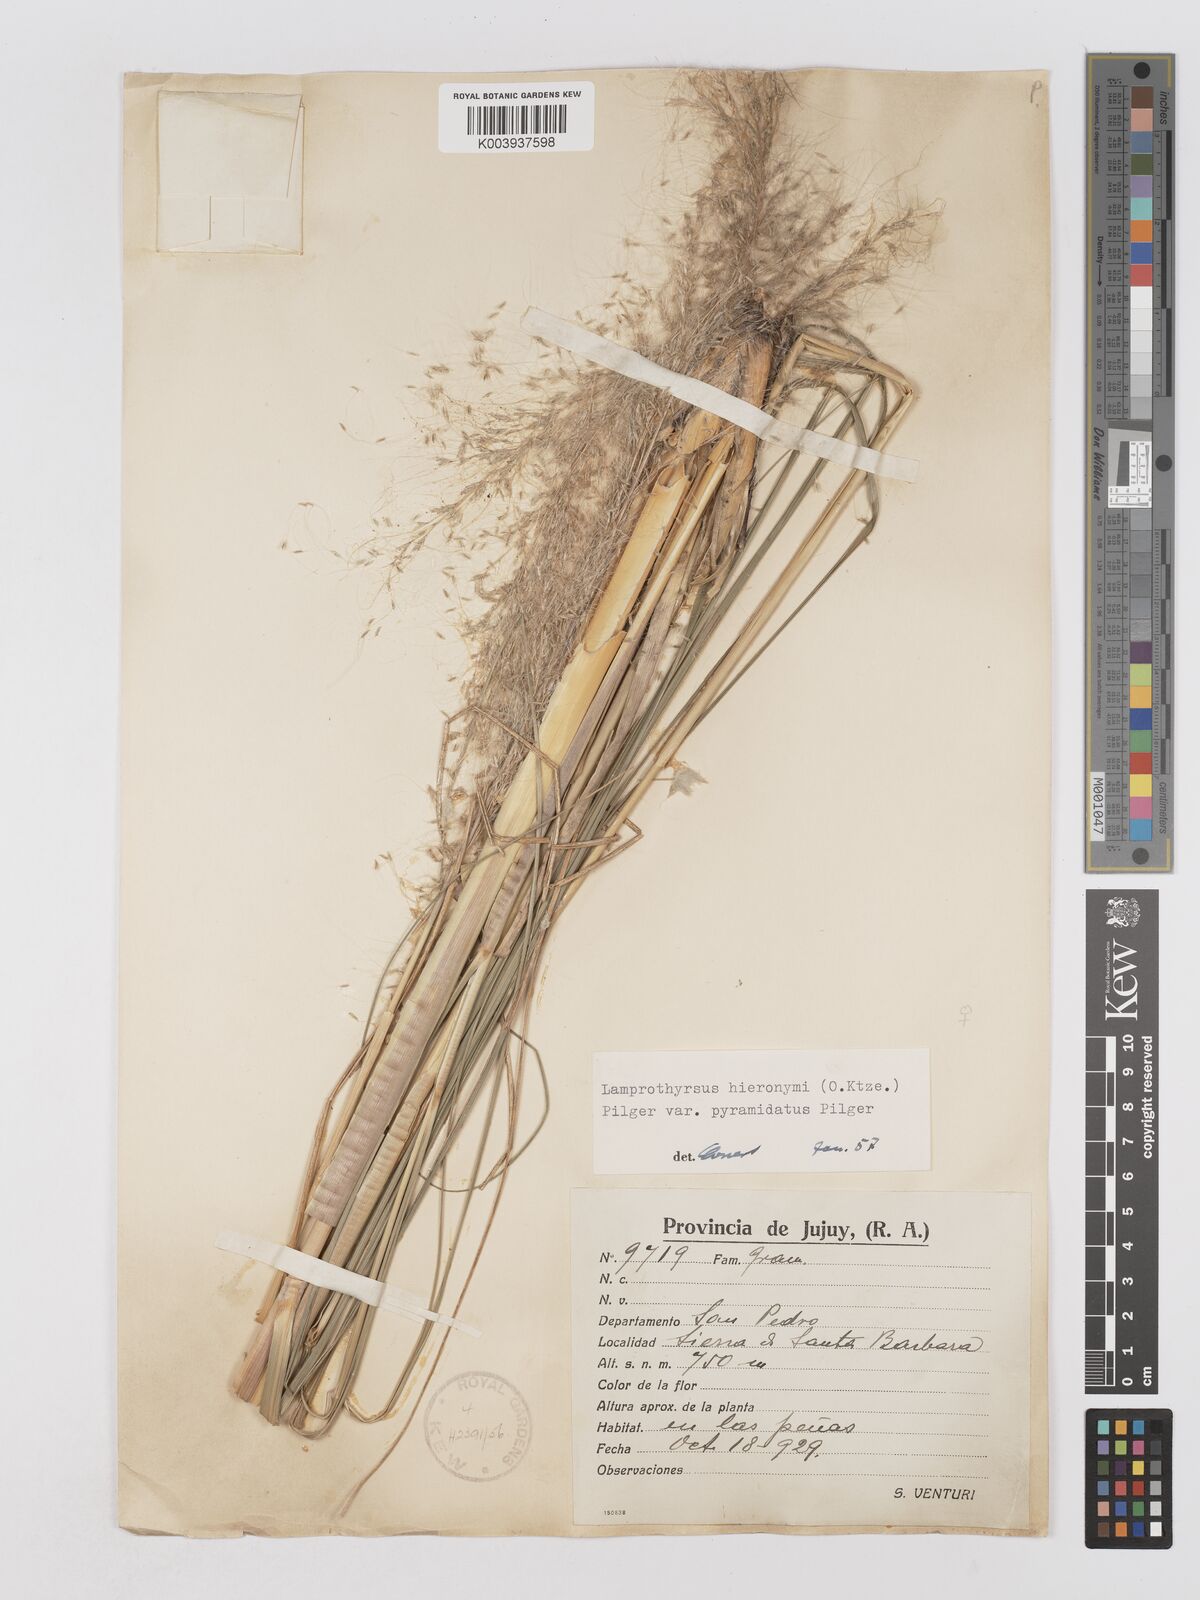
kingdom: Plantae
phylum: Tracheophyta
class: Liliopsida
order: Poales
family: Poaceae
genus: Cortaderia
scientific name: Cortaderia hieronymi
